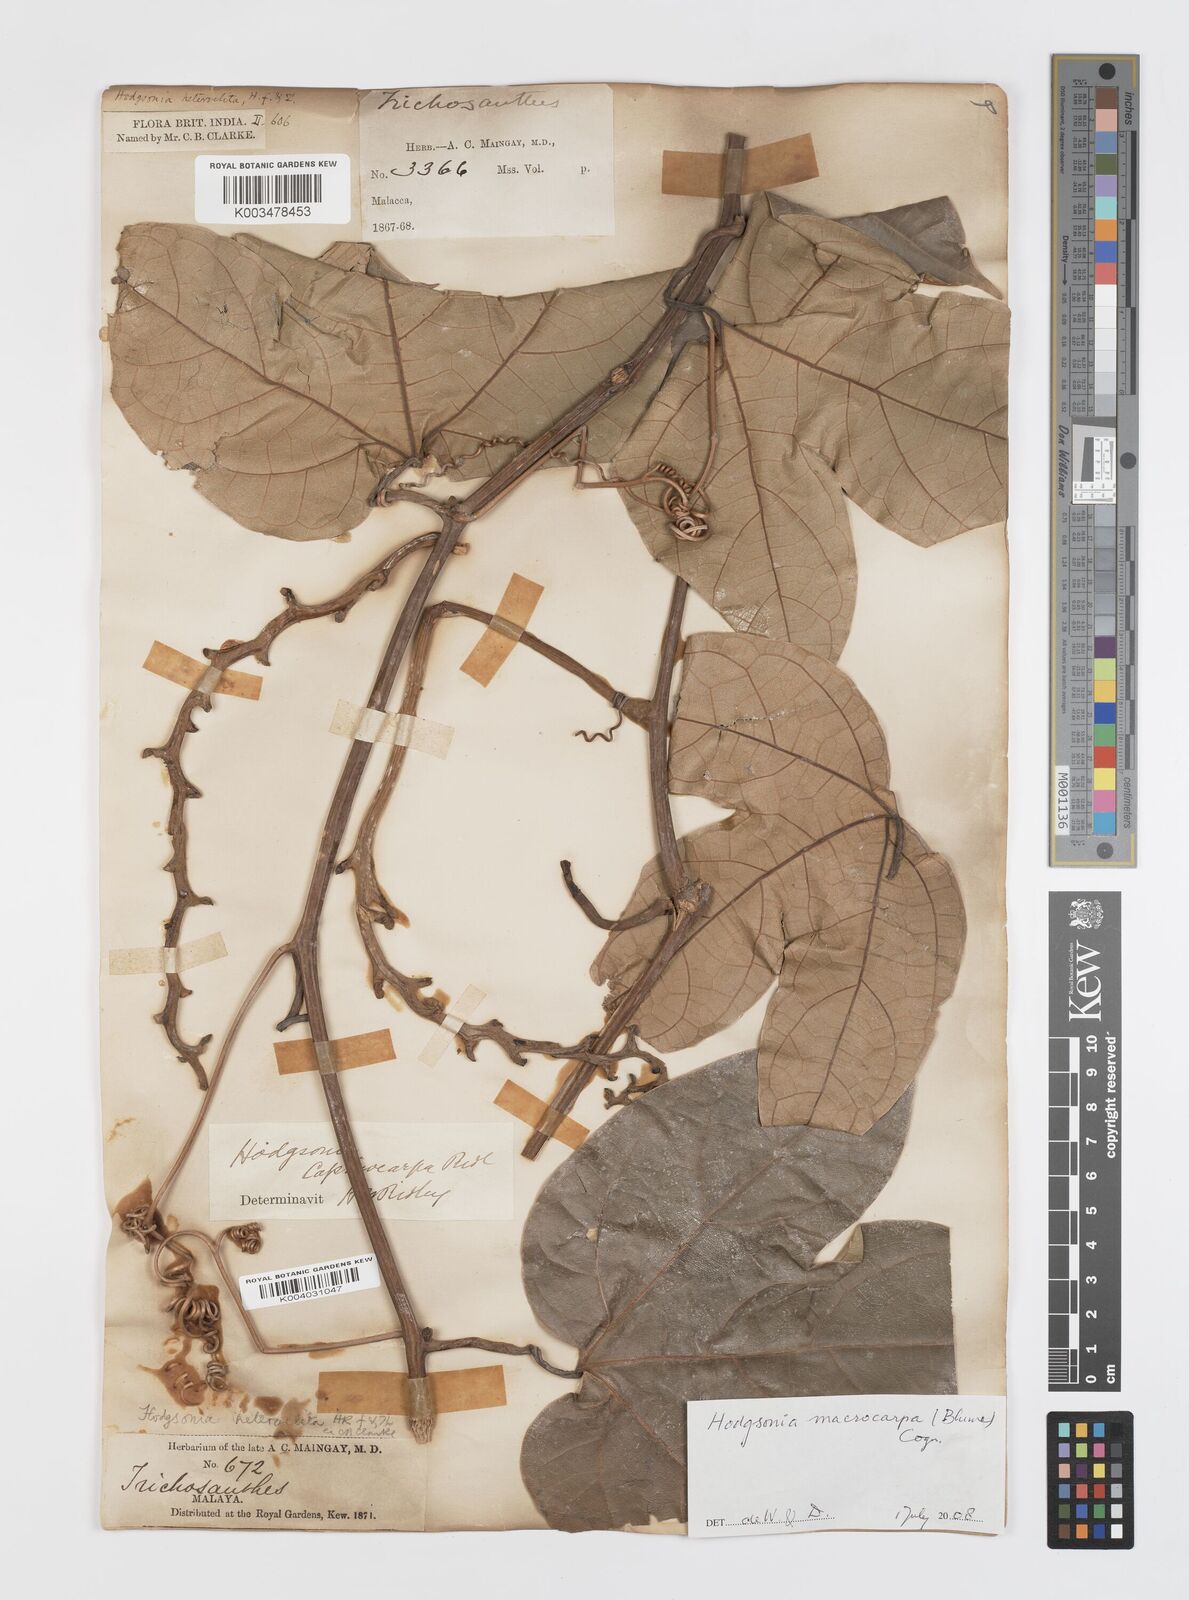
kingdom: Plantae
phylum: Tracheophyta
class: Magnoliopsida
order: Cucurbitales
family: Cucurbitaceae
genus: Hodgsonia
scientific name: Hodgsonia macrocarpa
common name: Chinese lardfruit
